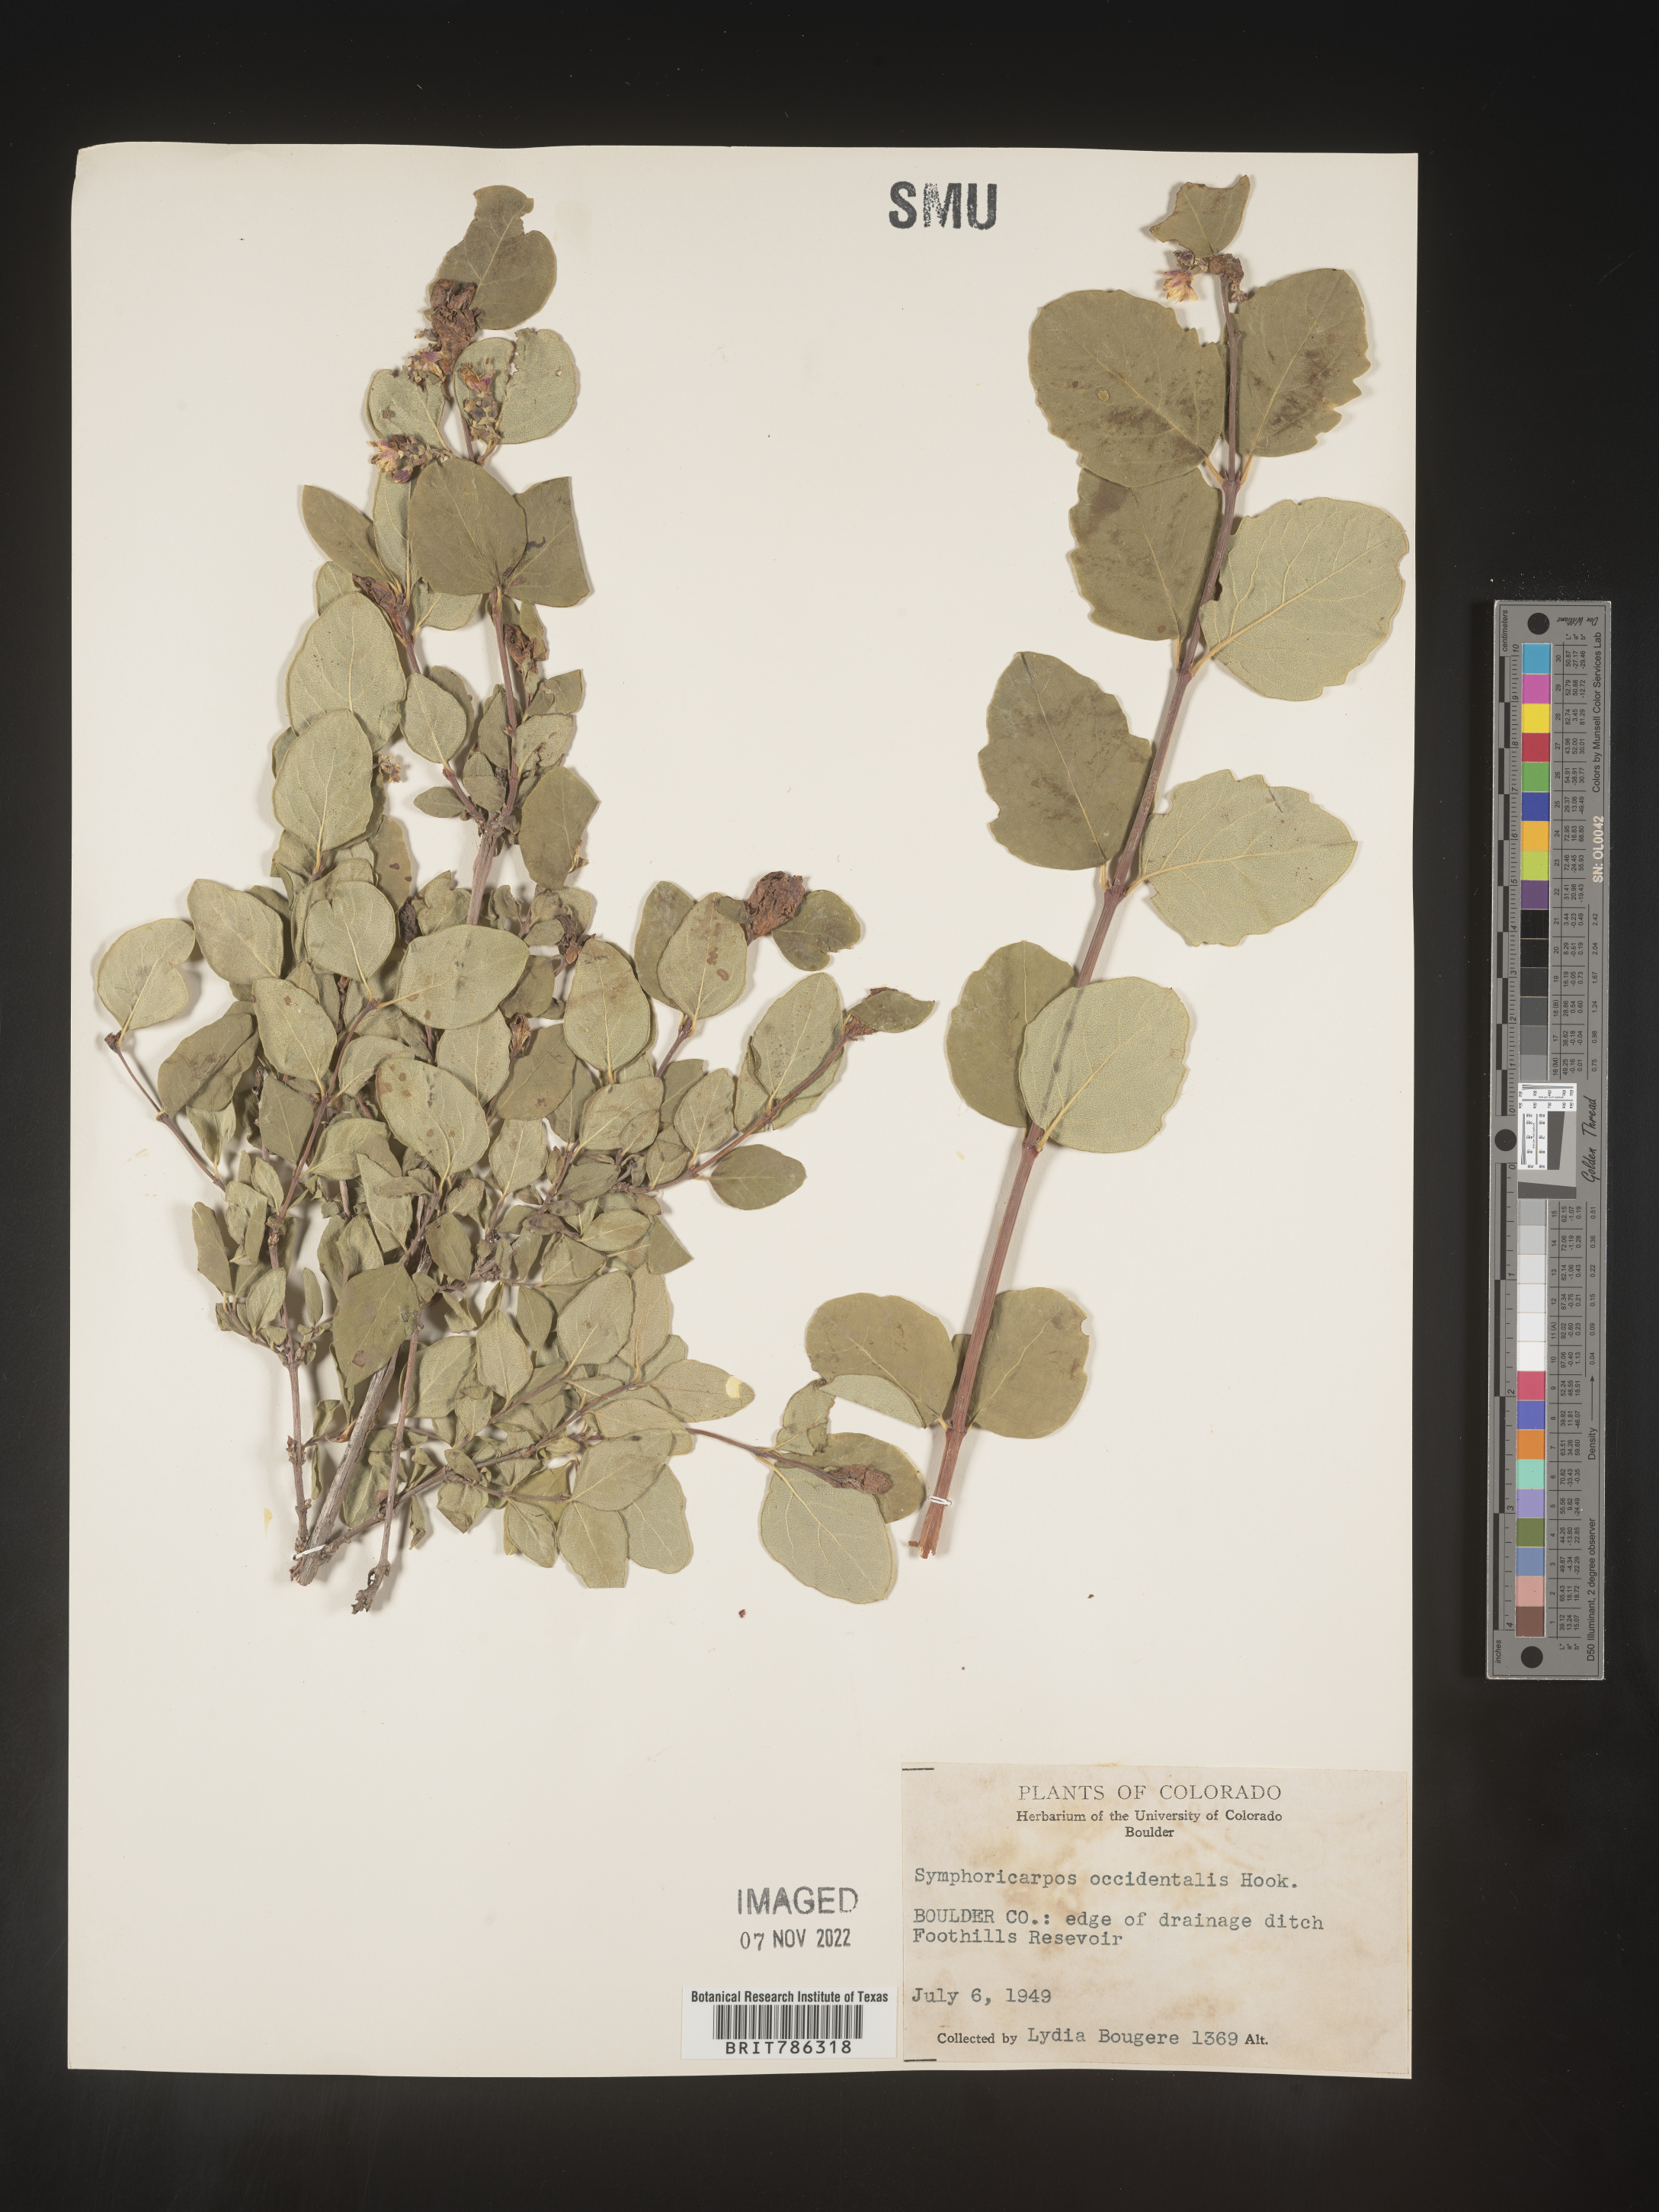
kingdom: Plantae
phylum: Tracheophyta
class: Magnoliopsida
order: Dipsacales
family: Caprifoliaceae
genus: Symphoricarpos
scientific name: Symphoricarpos occidentalis
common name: Wolfberry
